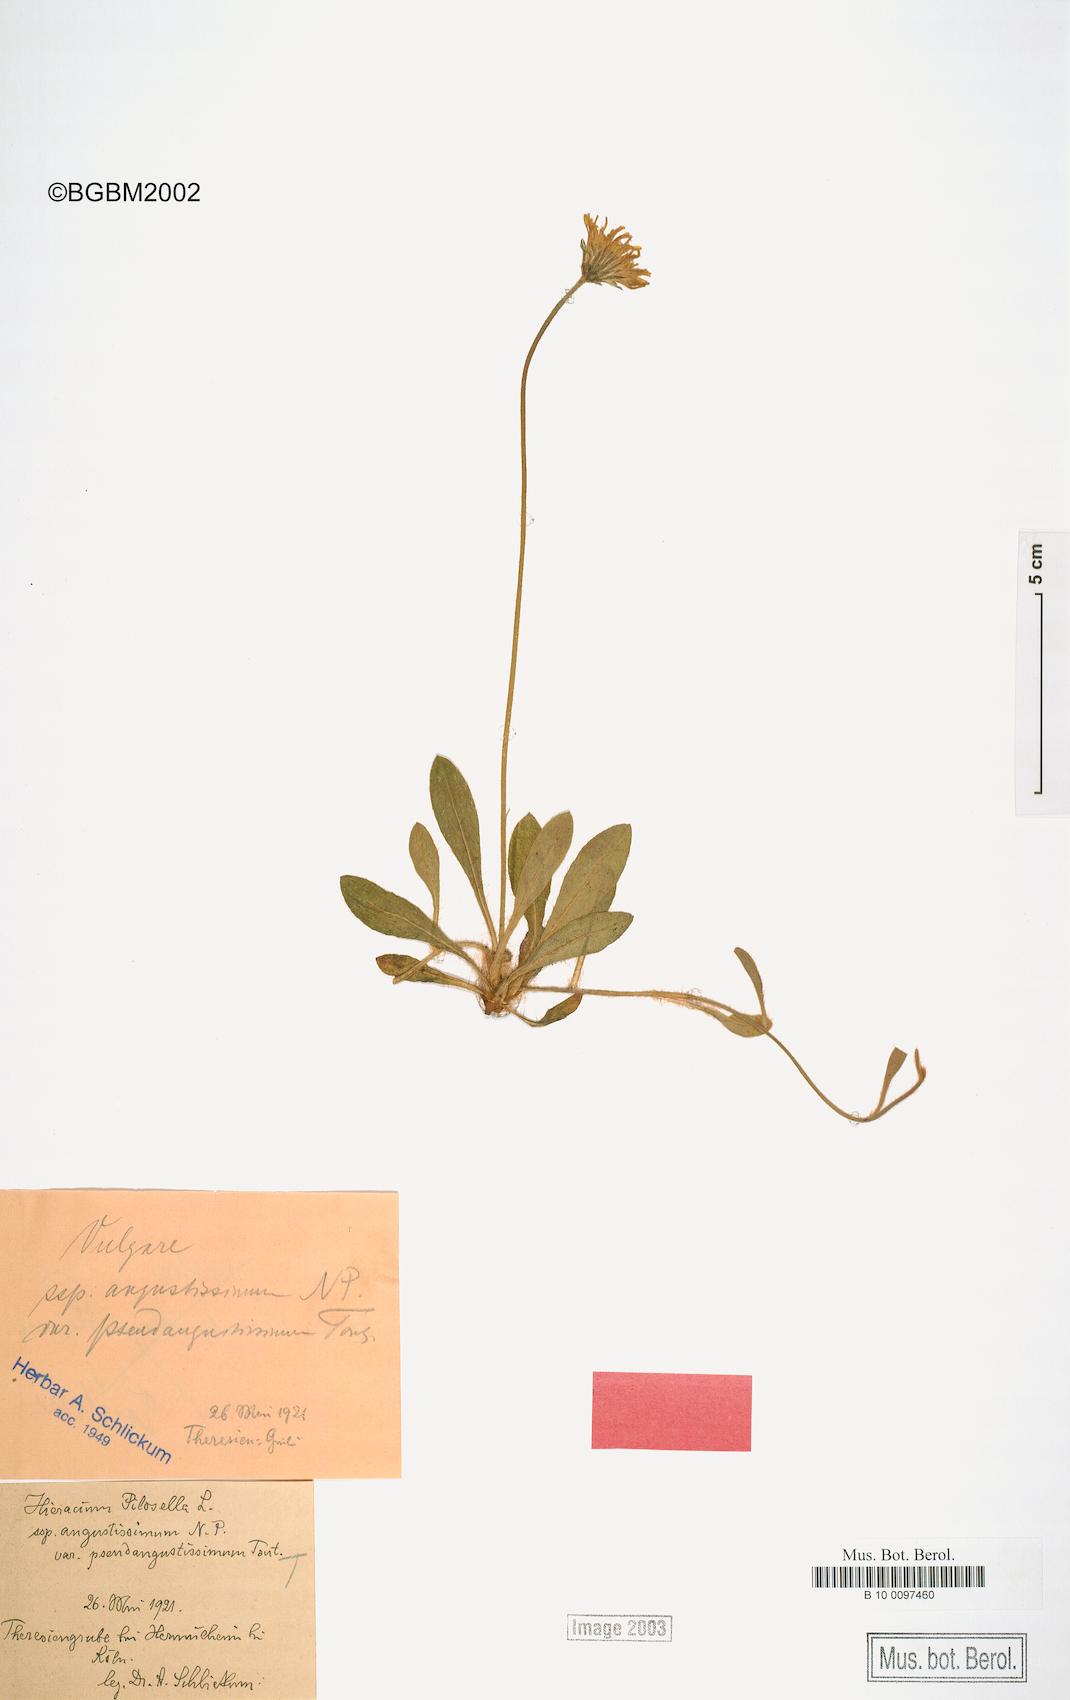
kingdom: Plantae
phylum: Tracheophyta
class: Magnoliopsida
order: Asterales
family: Asteraceae
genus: Pilosella
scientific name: Pilosella officinarum
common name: Mouse-ear hawkweed
